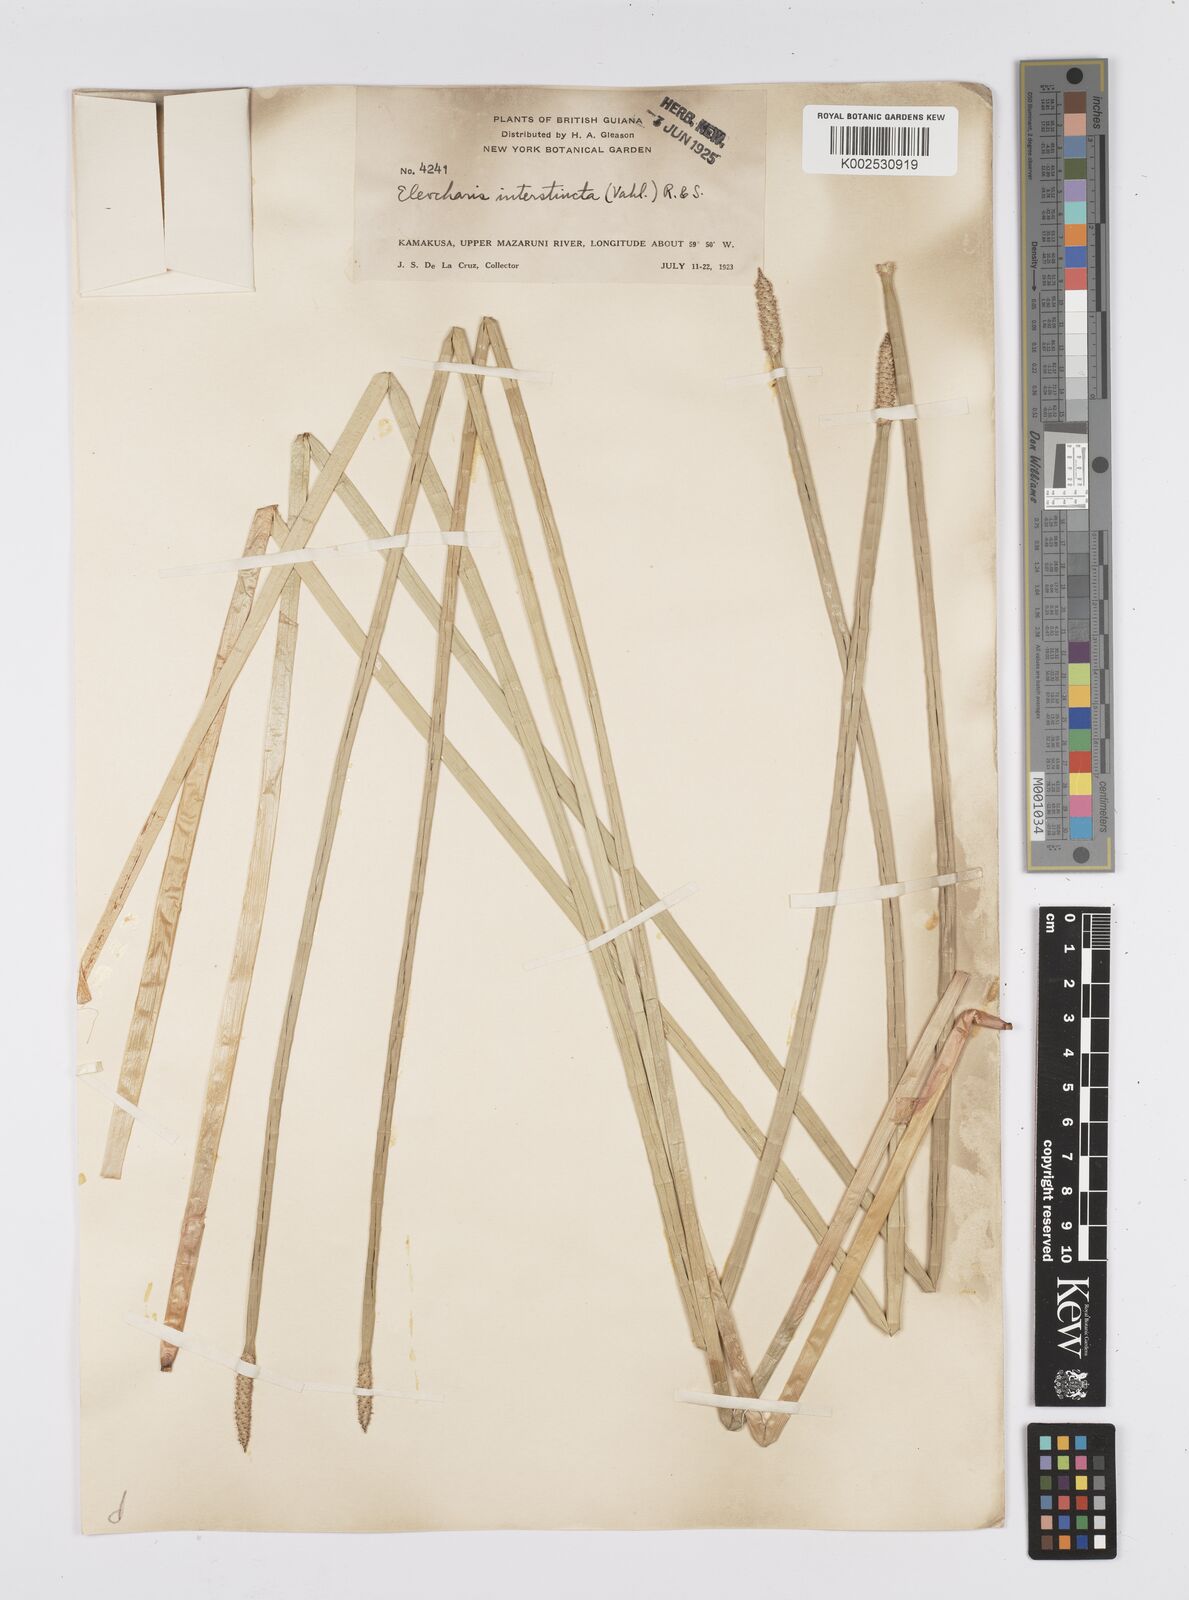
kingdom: Plantae
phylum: Tracheophyta
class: Liliopsida
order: Poales
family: Cyperaceae
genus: Eleocharis
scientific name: Eleocharis interstincta
